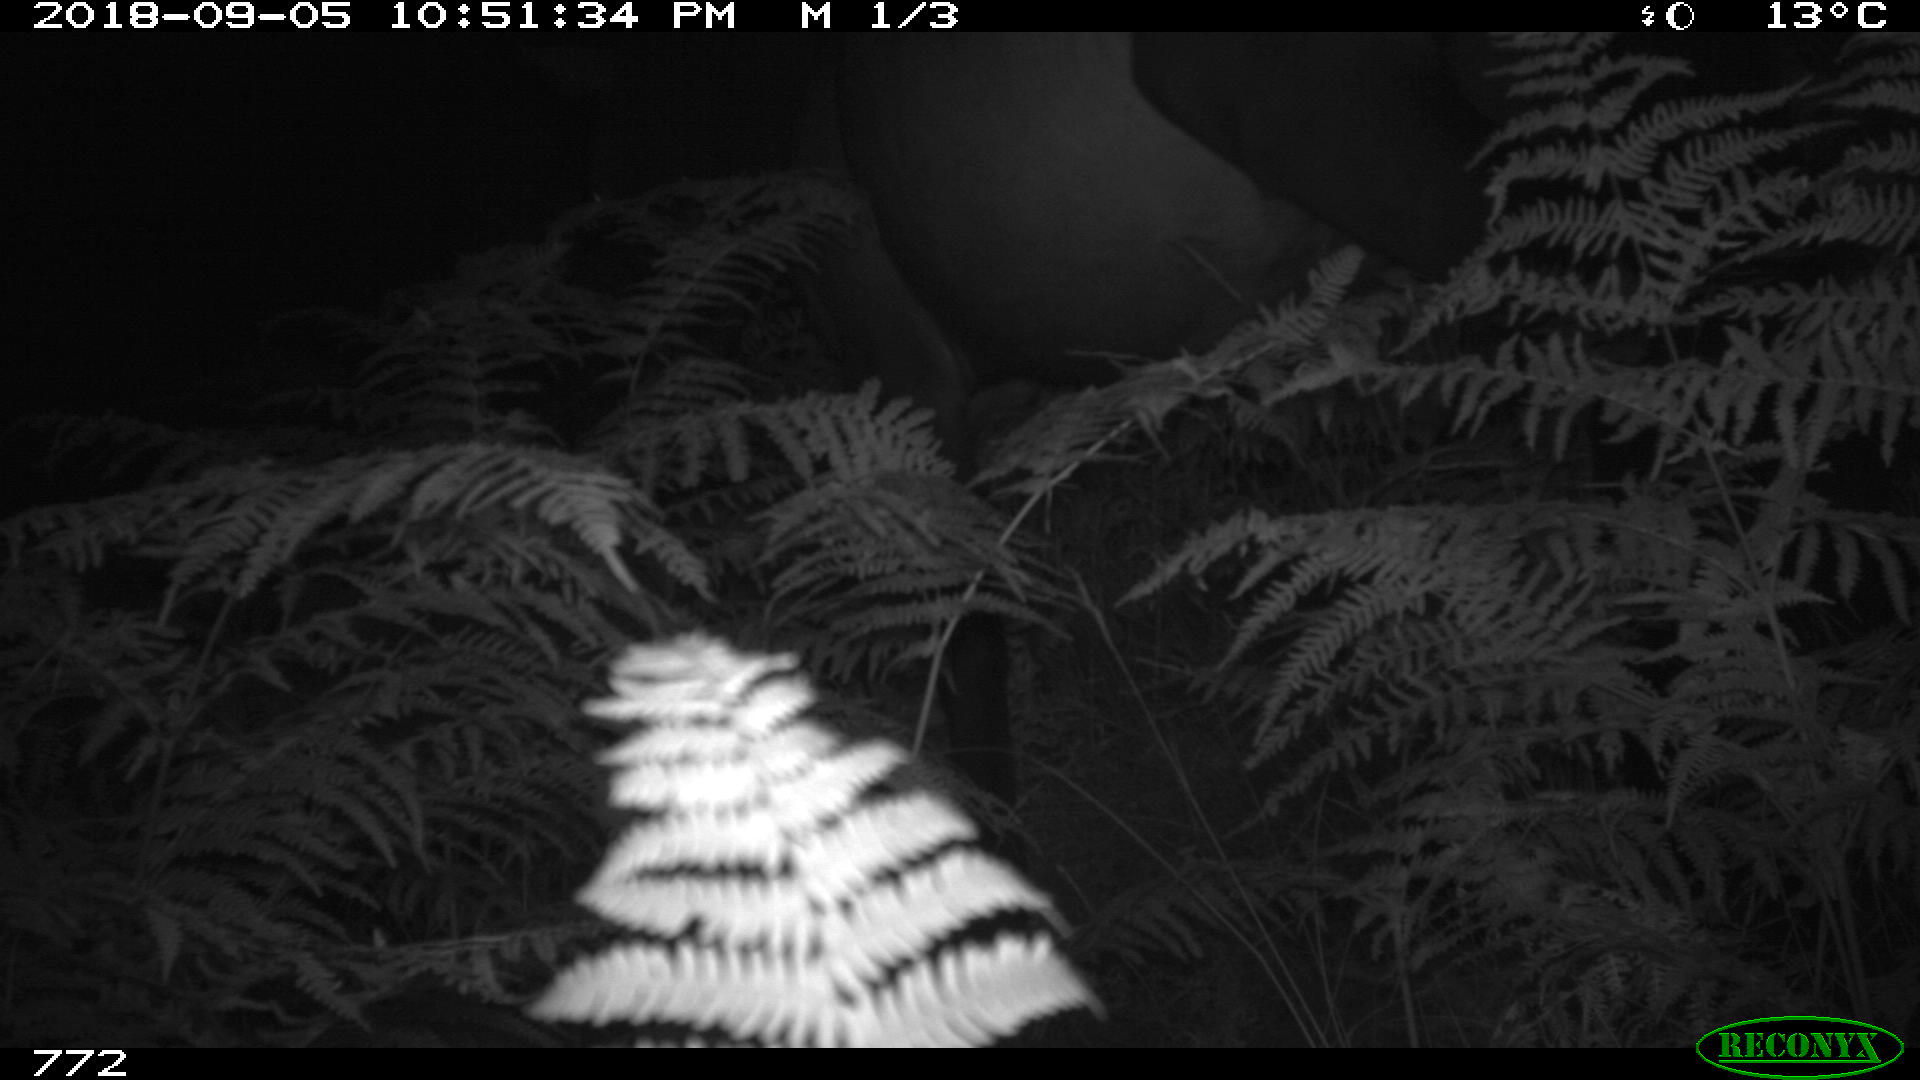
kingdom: Animalia
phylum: Chordata
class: Mammalia
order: Perissodactyla
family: Equidae
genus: Equus
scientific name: Equus caballus
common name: Horse
